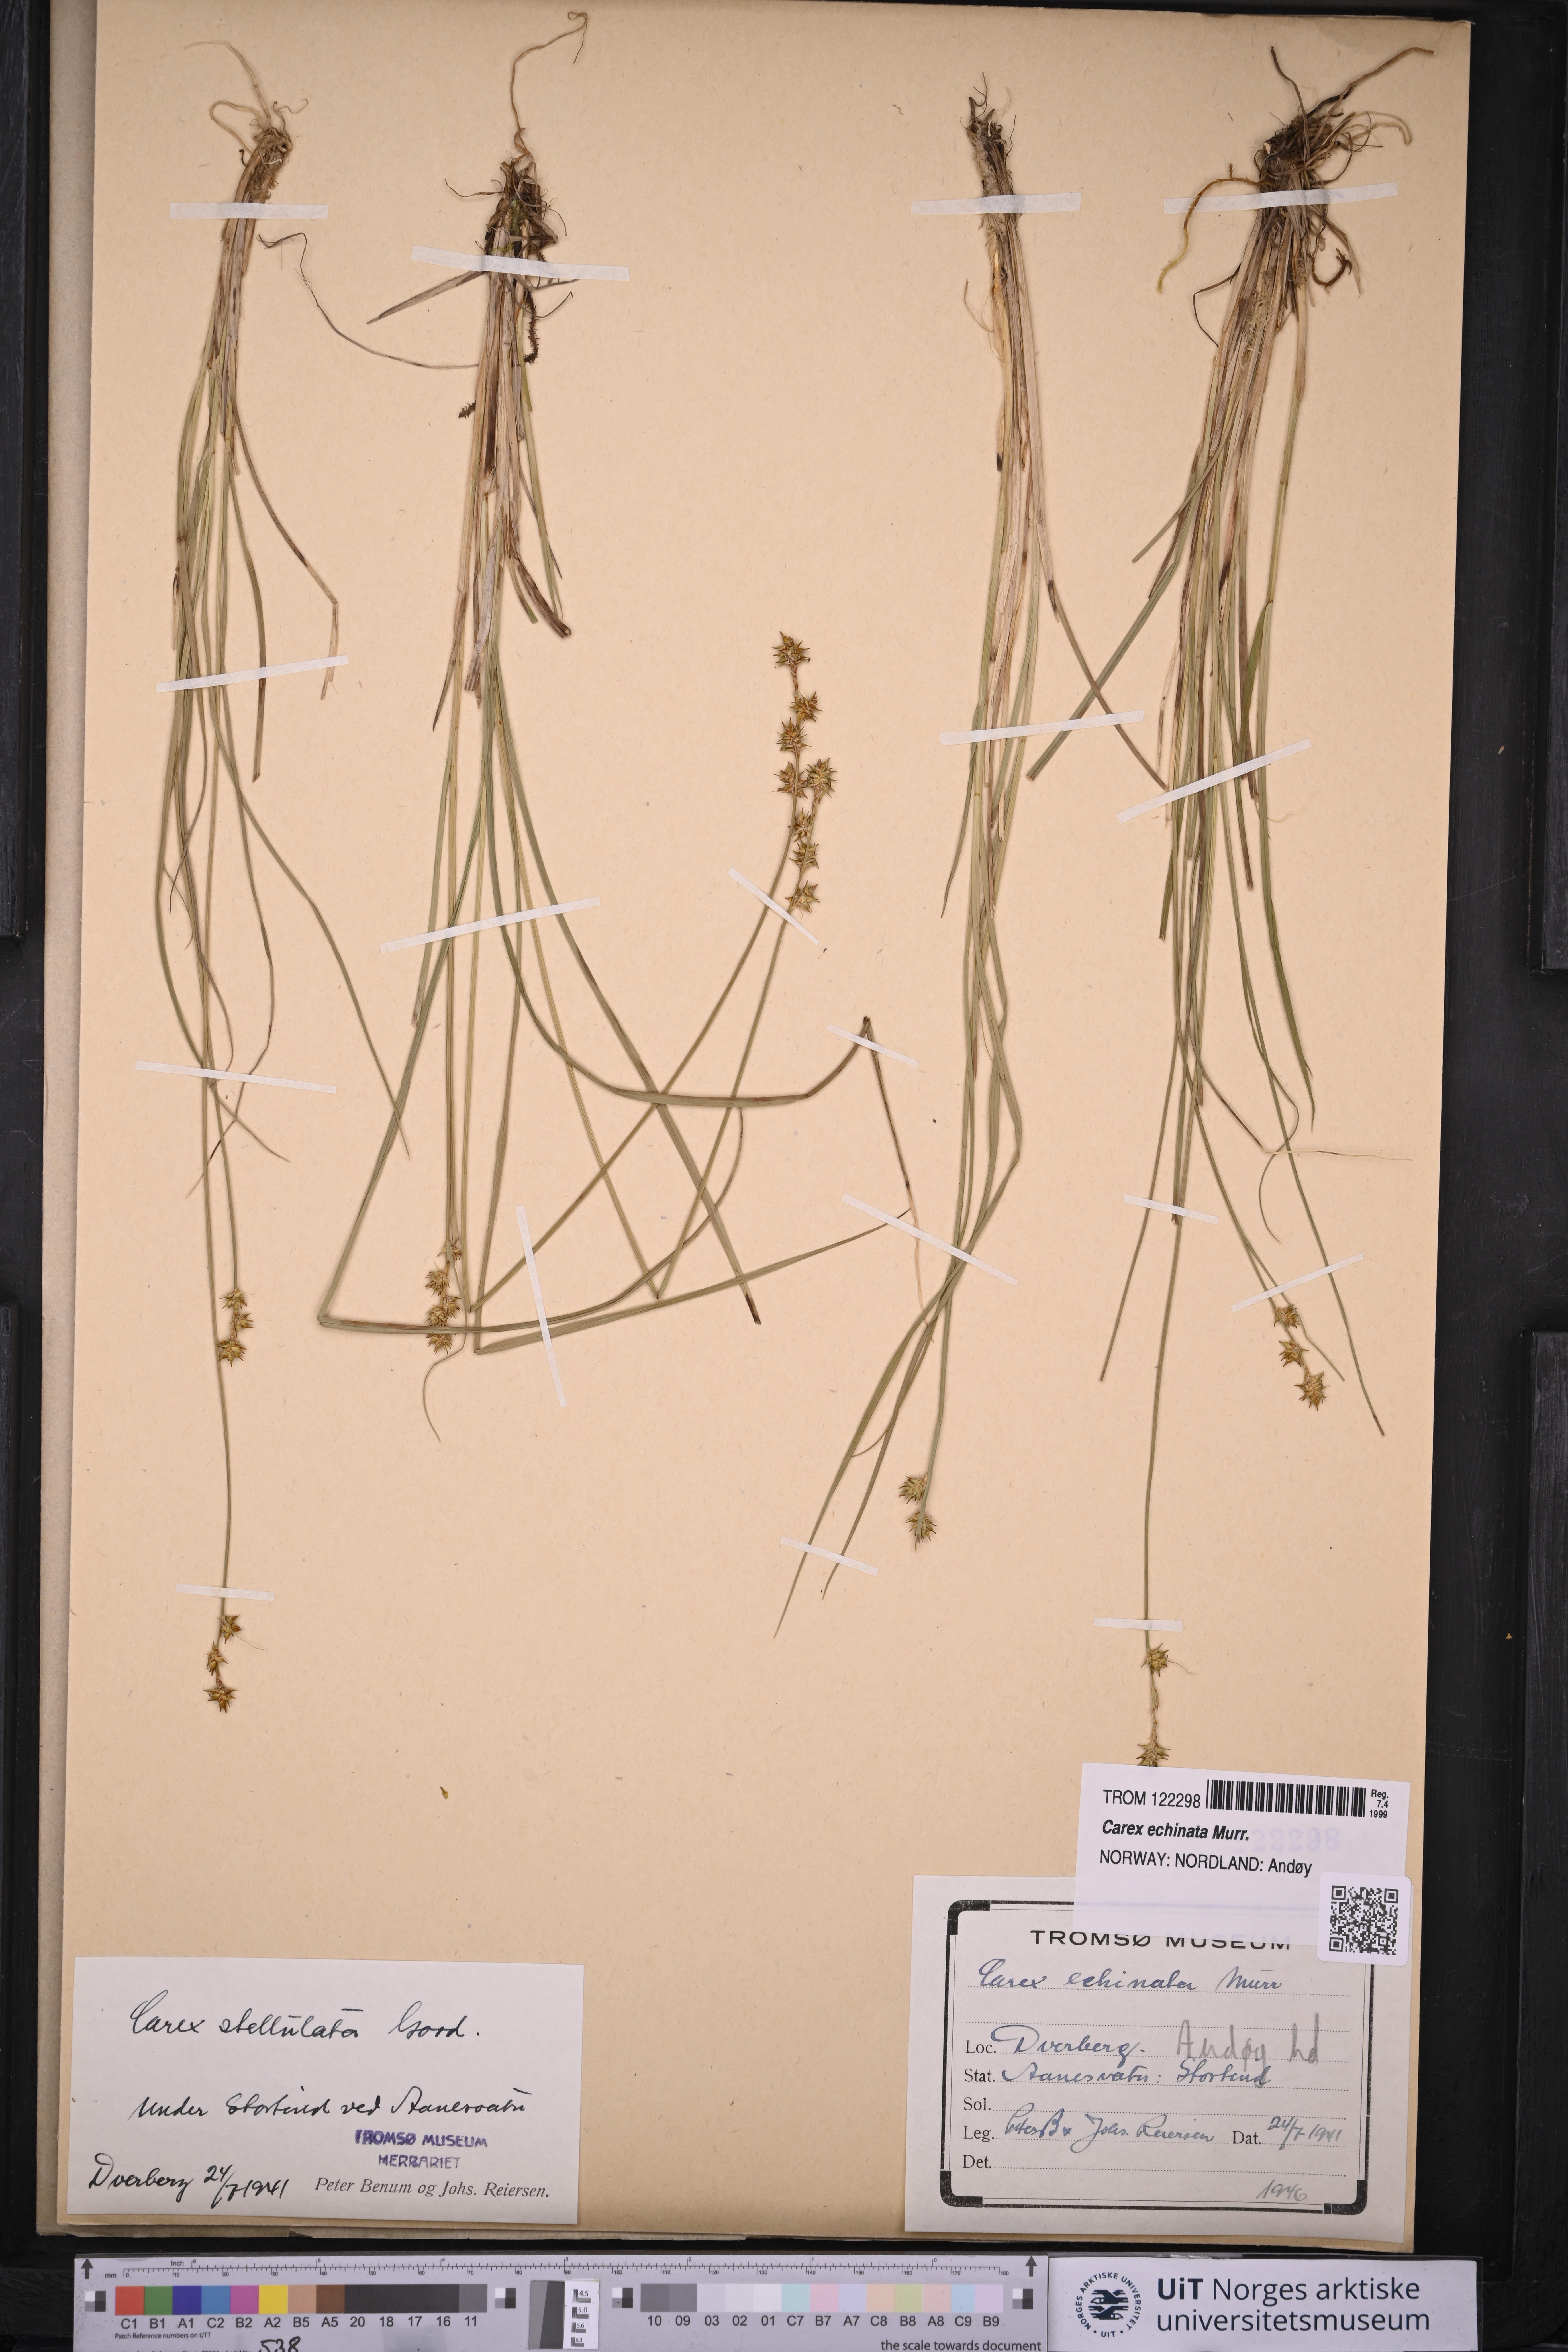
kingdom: Plantae
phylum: Tracheophyta
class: Liliopsida
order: Poales
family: Cyperaceae
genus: Carex
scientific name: Carex echinata
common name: Star sedge
